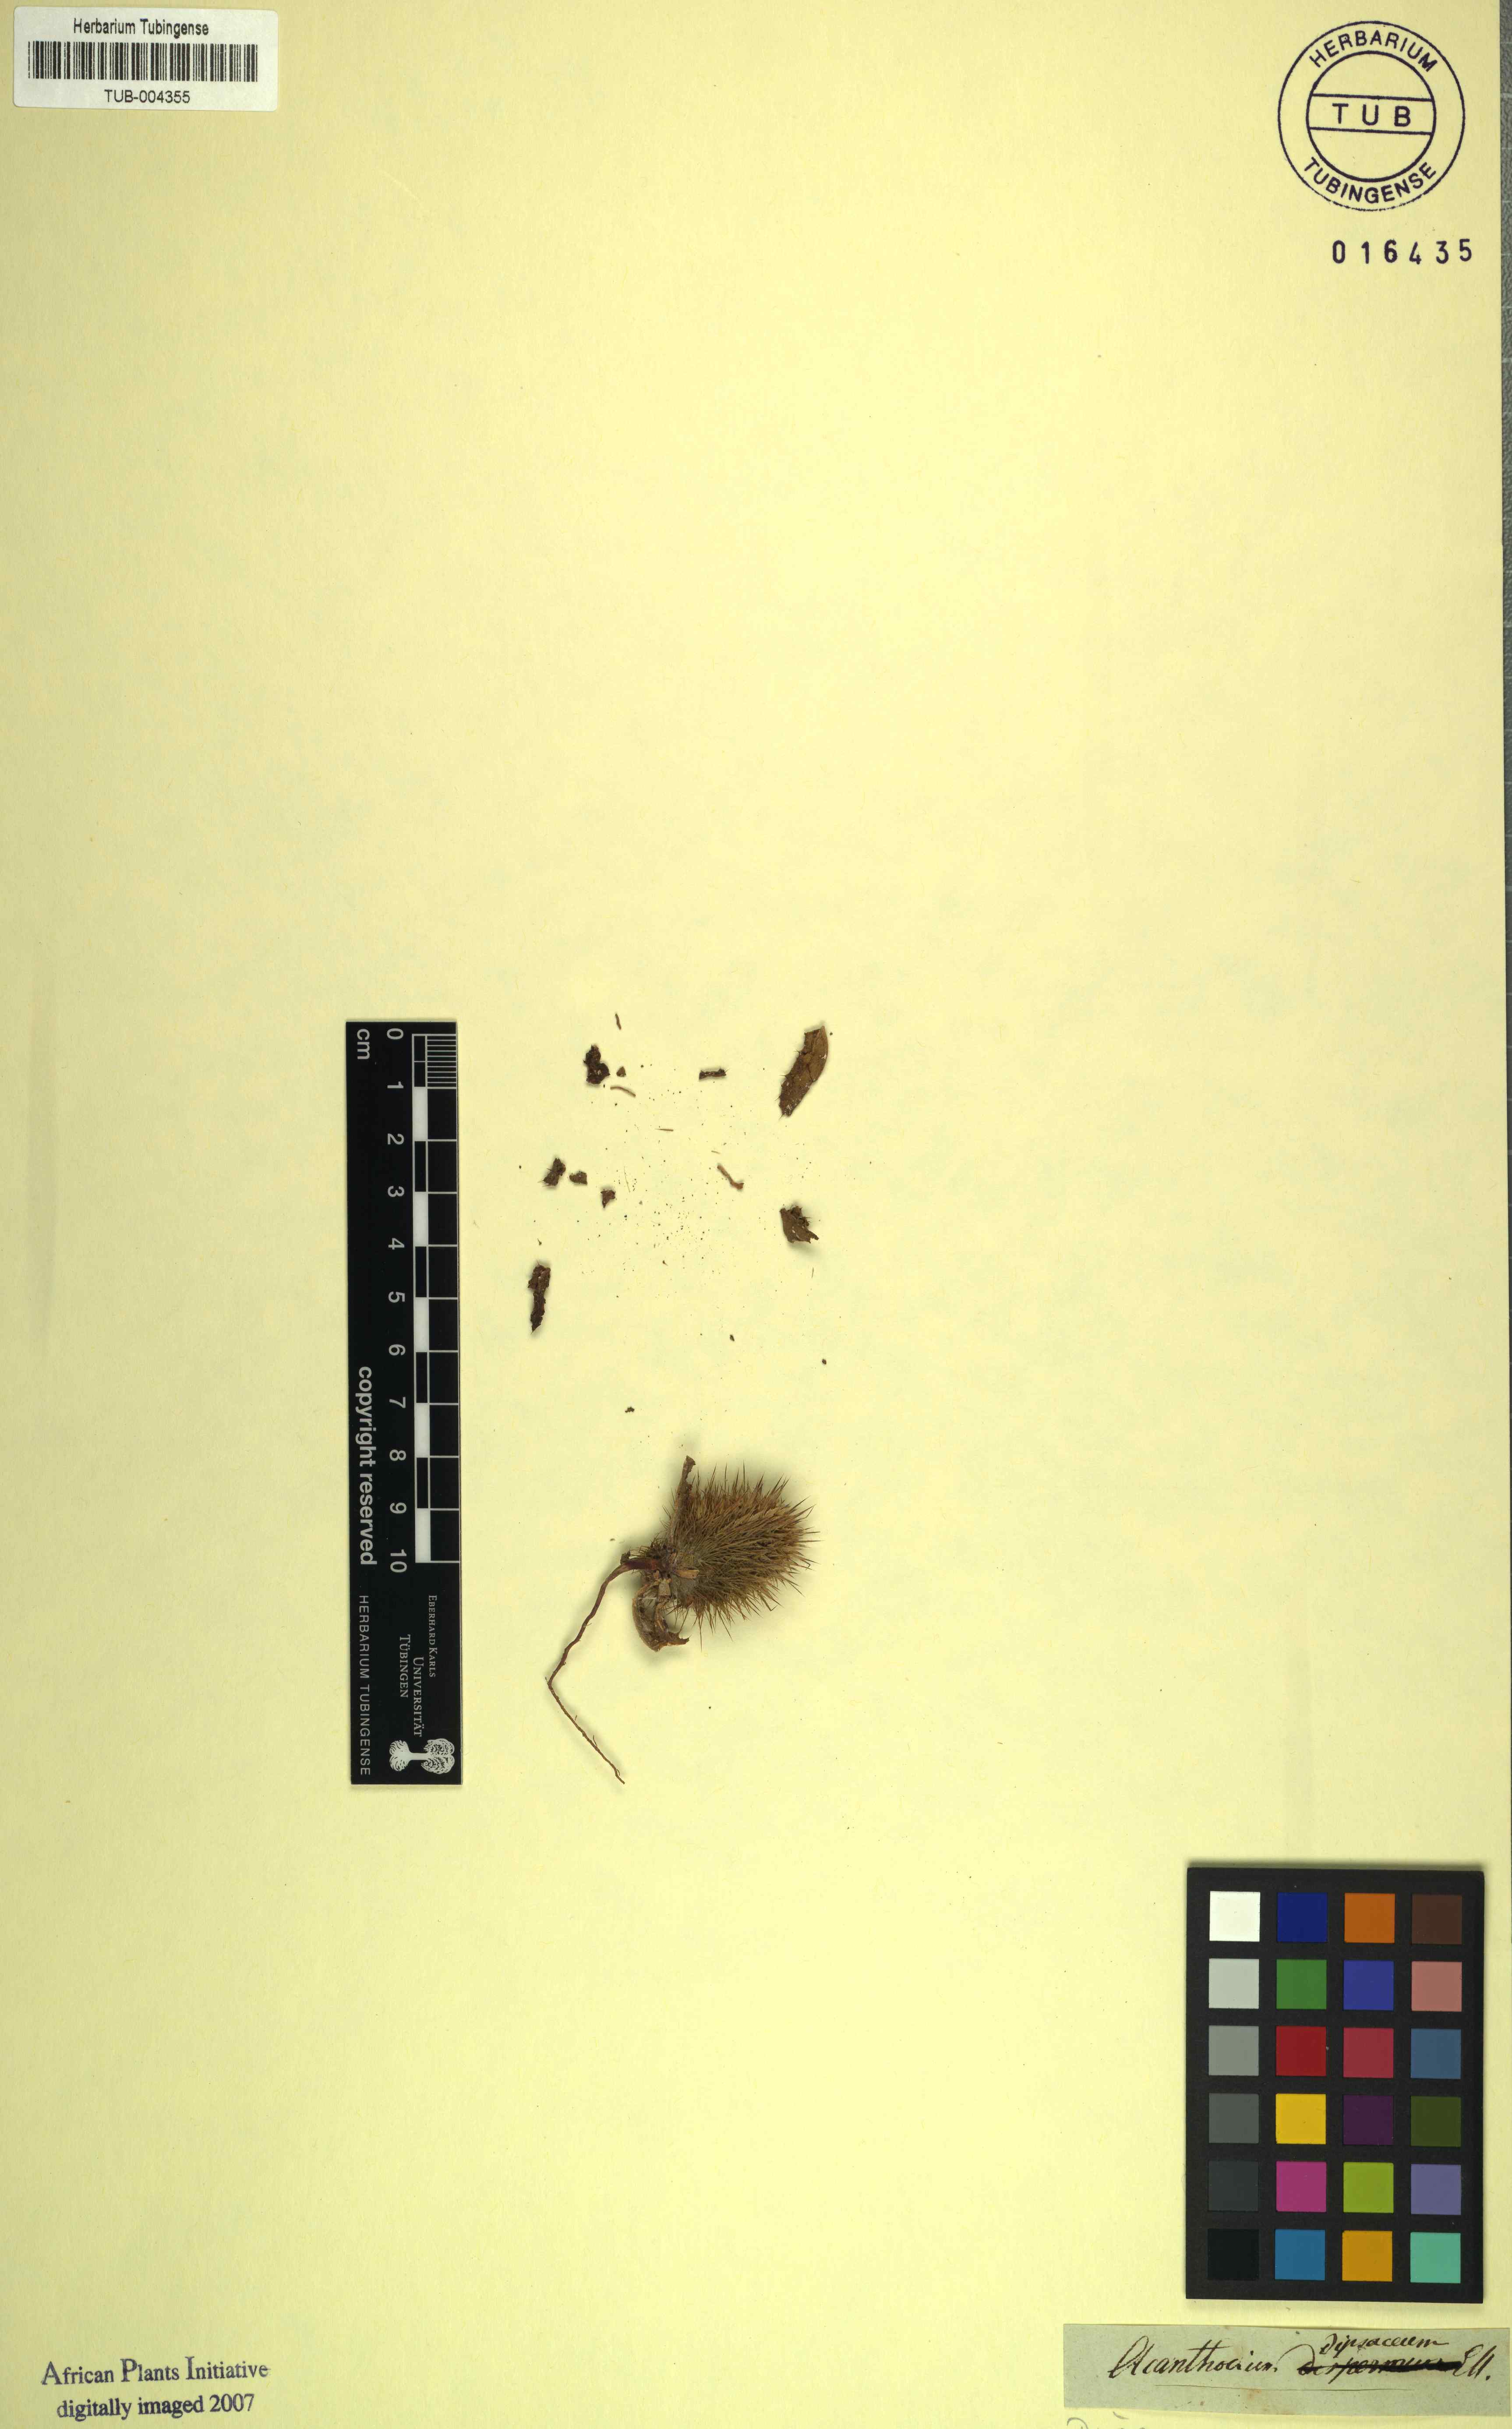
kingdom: Plantae
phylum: Tracheophyta
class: Magnoliopsida
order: Lamiales
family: Acanthaceae
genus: Blepharis
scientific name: Blepharis
